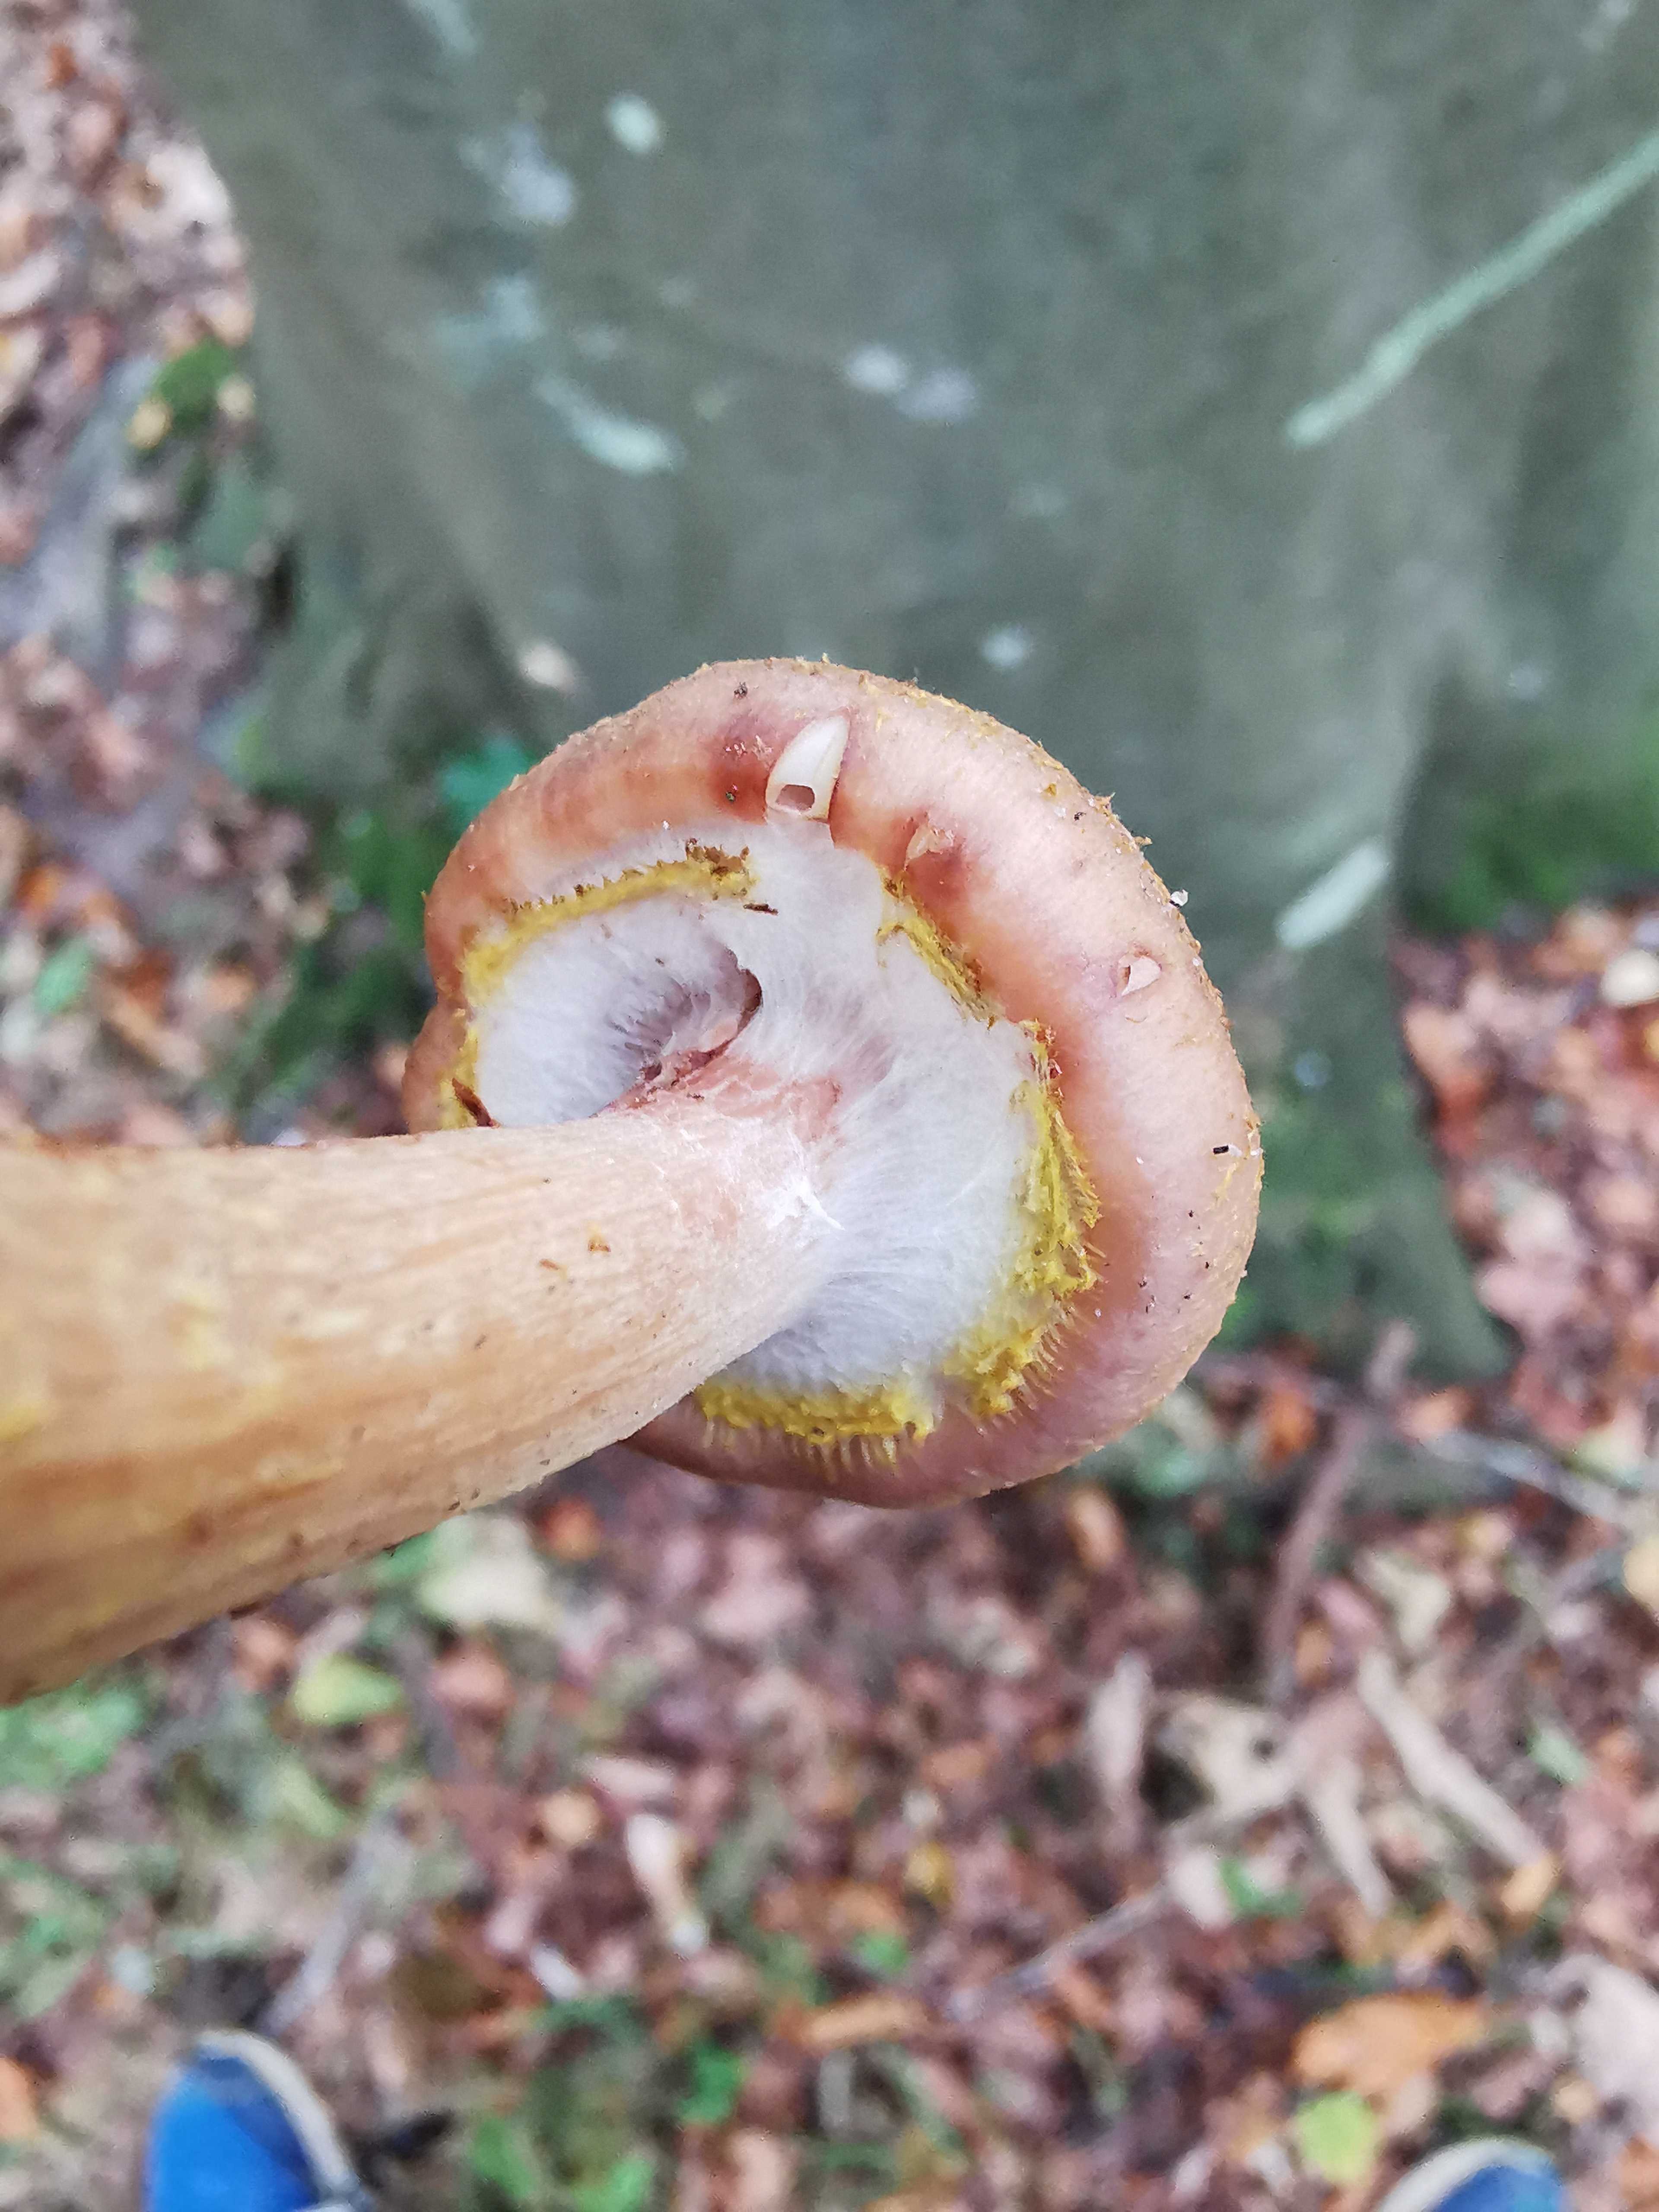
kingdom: Fungi
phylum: Basidiomycota
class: Agaricomycetes
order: Agaricales
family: Physalacriaceae
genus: Armillaria
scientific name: Armillaria lutea
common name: køllestokket honningsvamp
